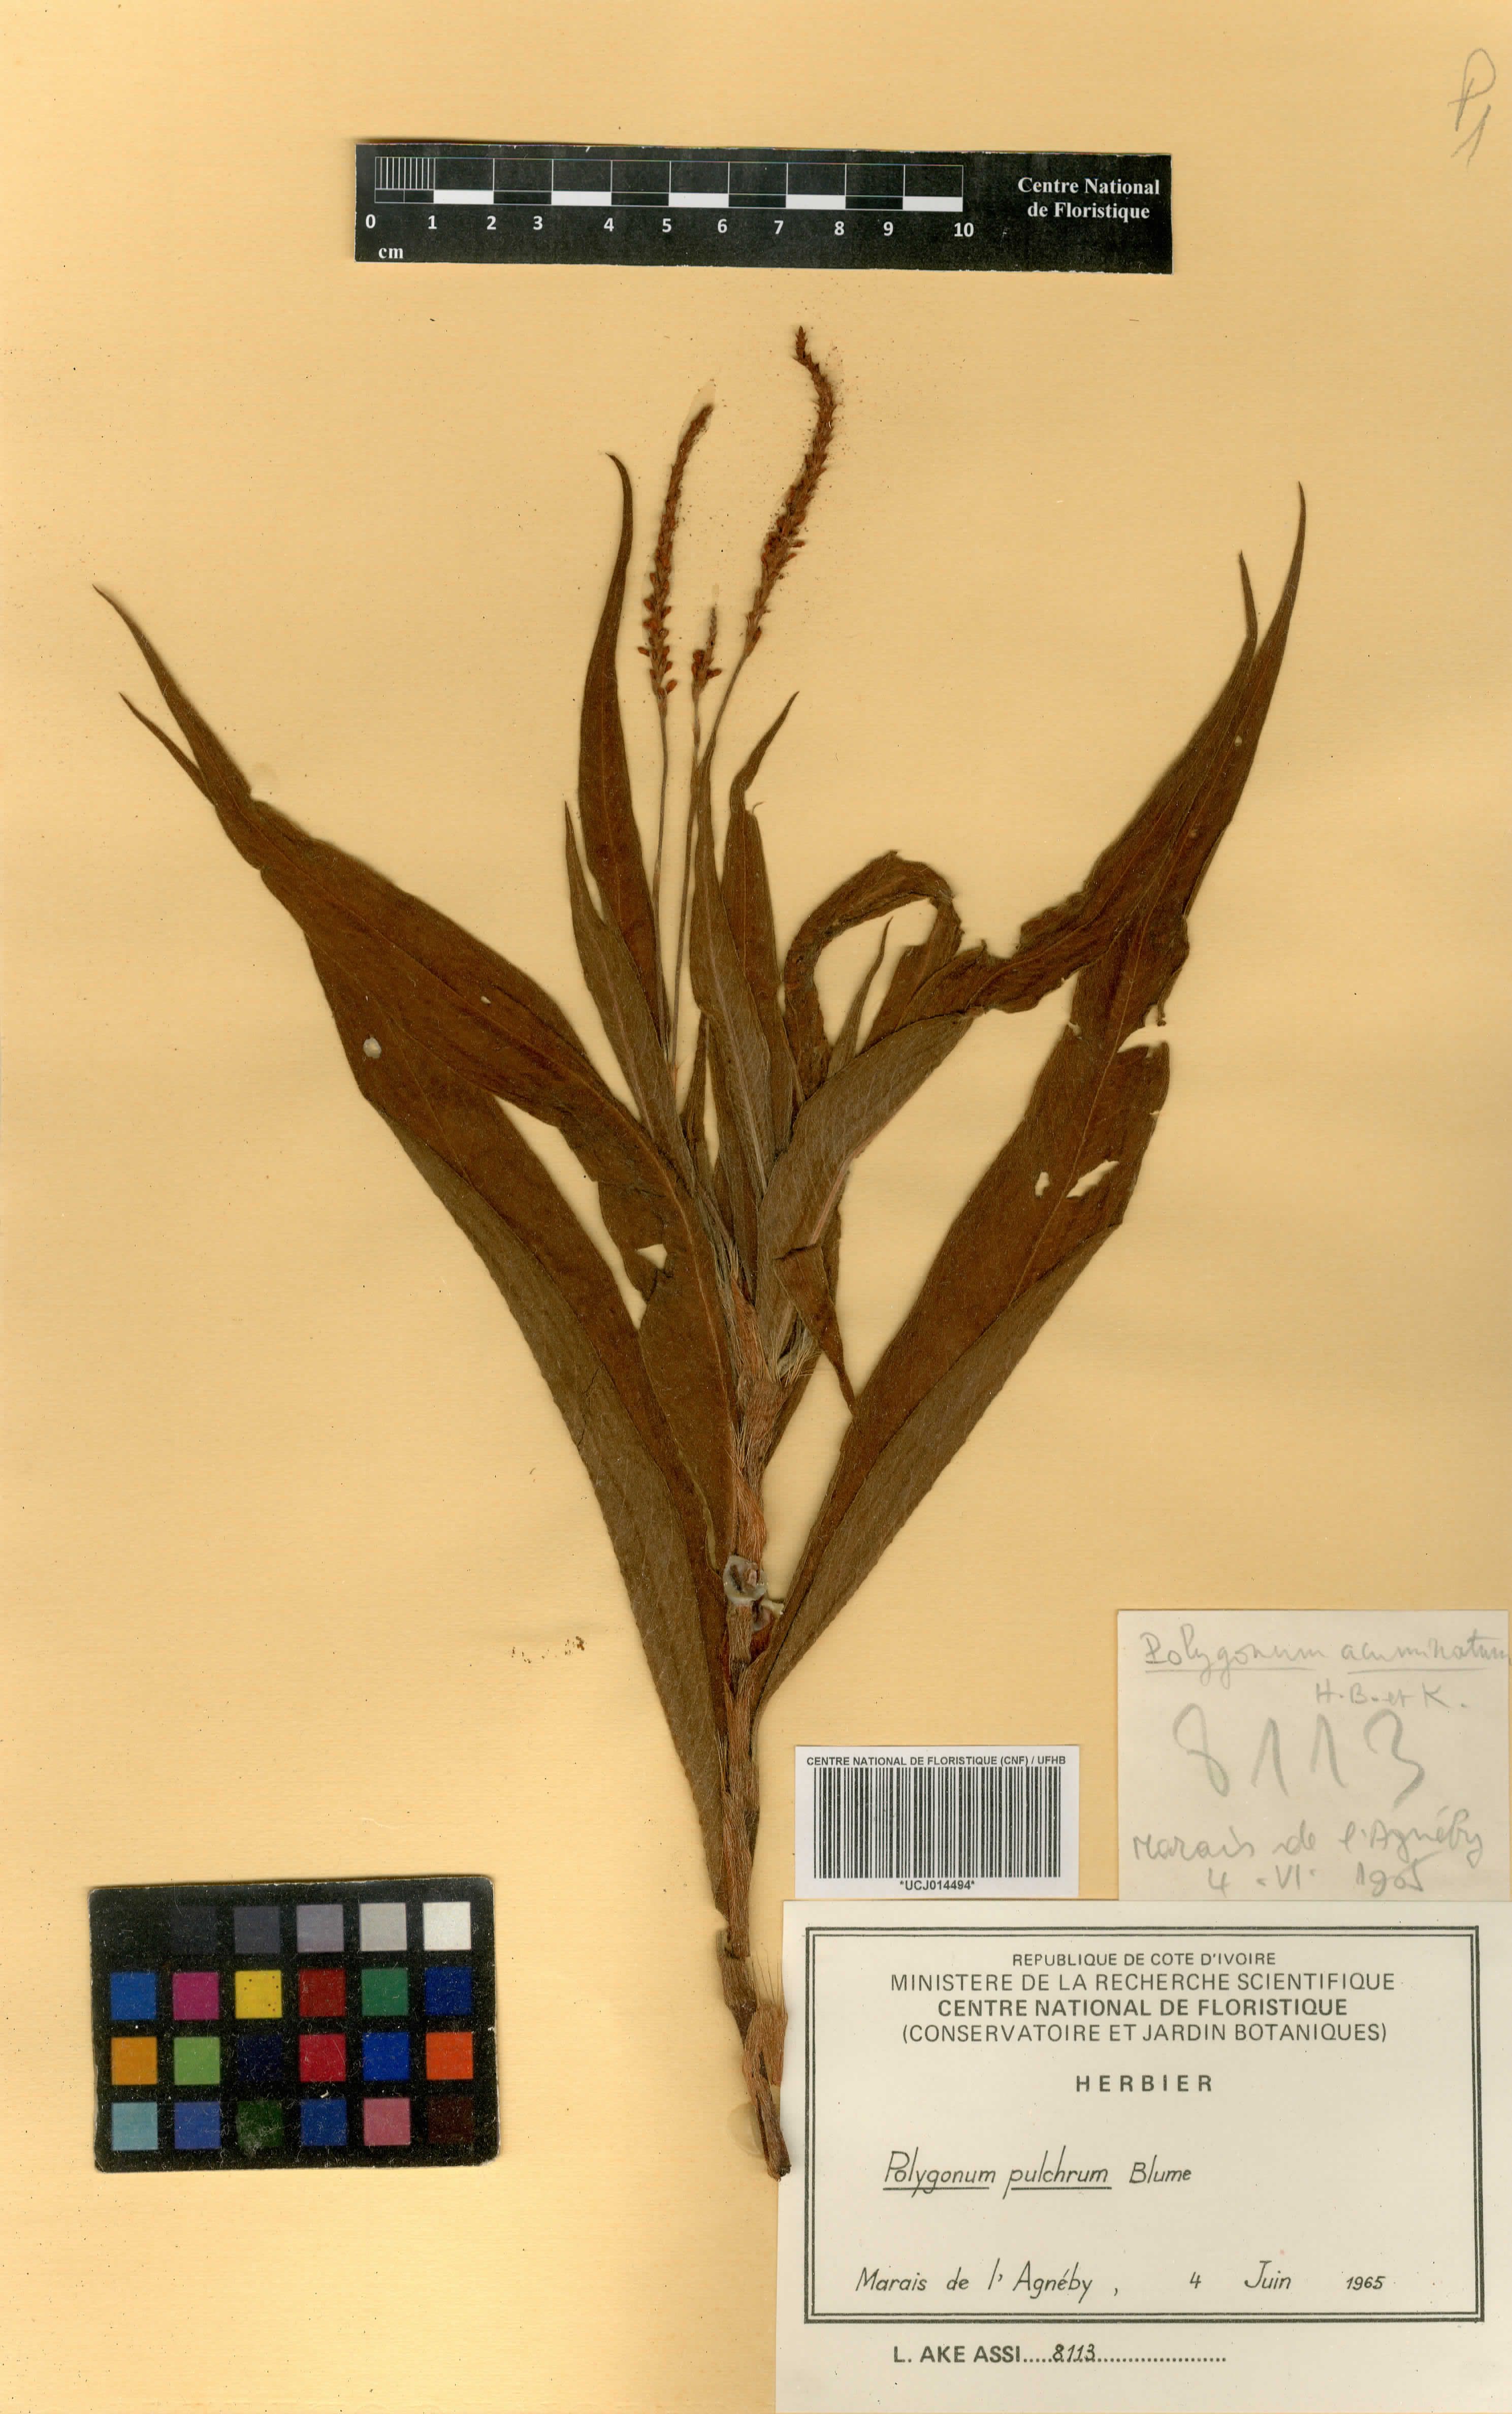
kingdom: Plantae
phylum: Tracheophyta
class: Magnoliopsida
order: Caryophyllales
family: Polygonaceae
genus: Persicaria
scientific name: Persicaria pulchra
